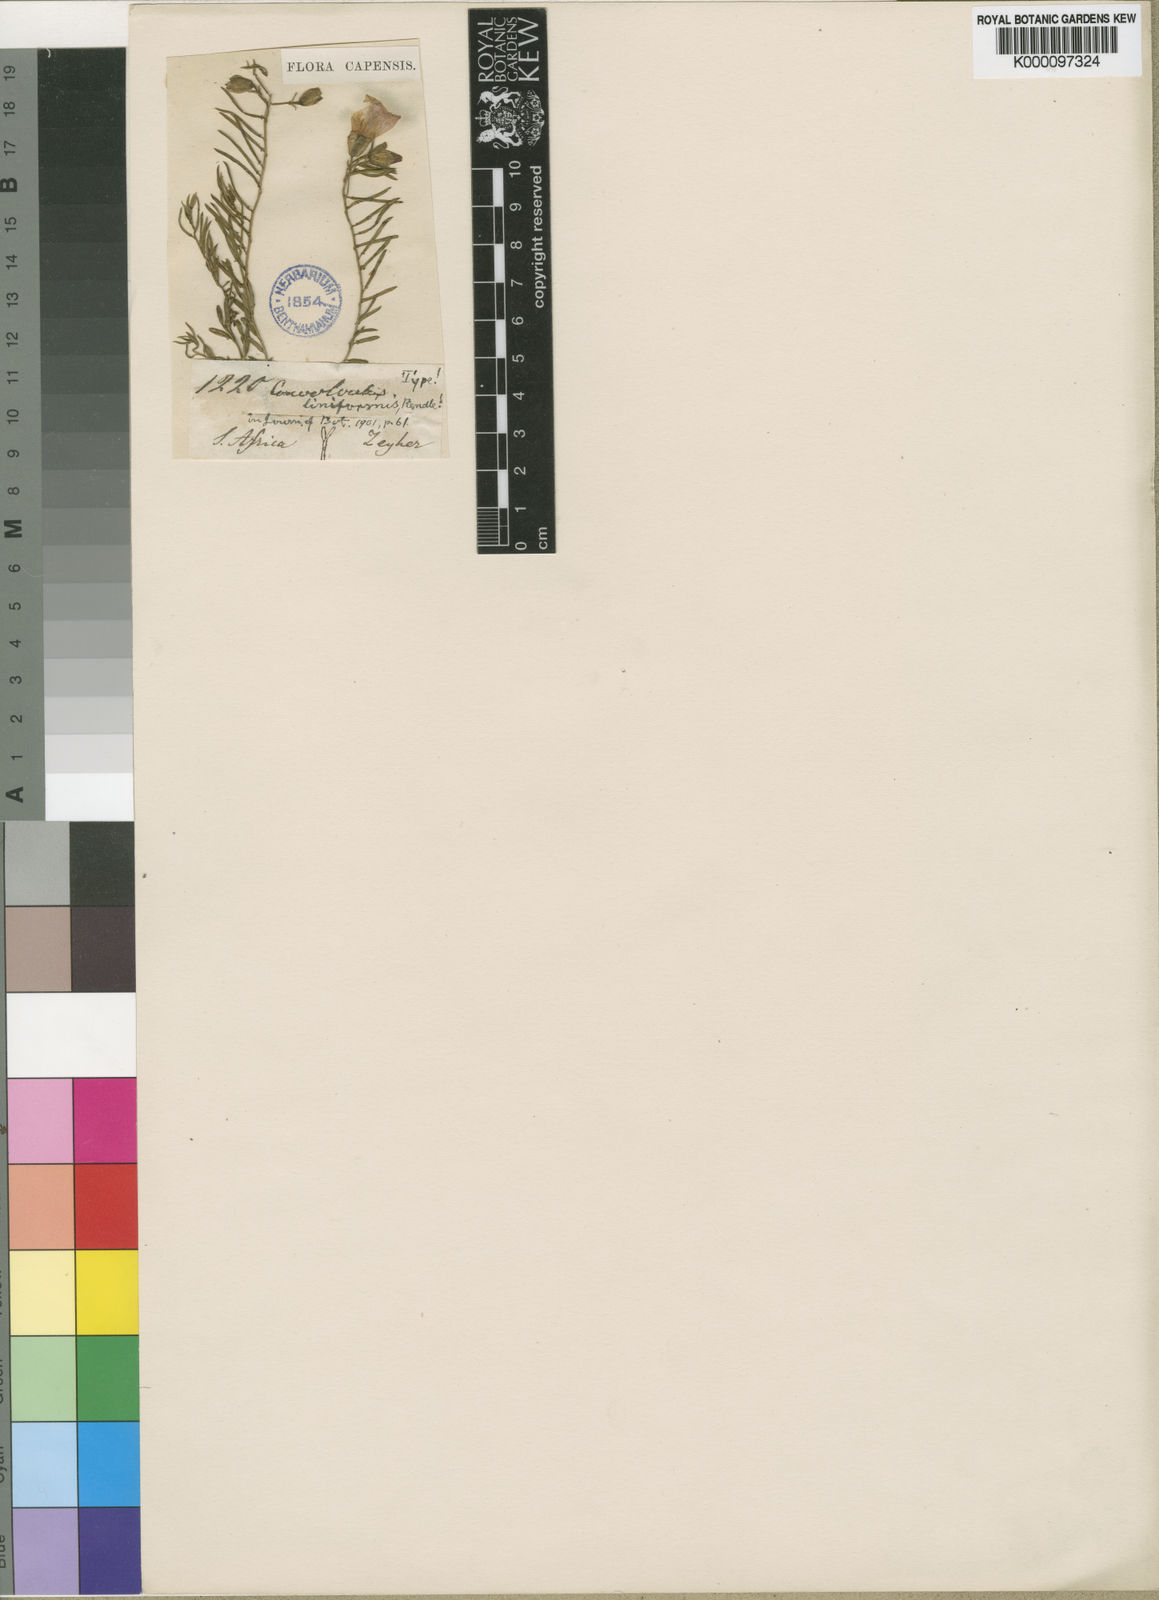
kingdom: Plantae
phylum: Tracheophyta
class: Magnoliopsida
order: Solanales
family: Convolvulaceae
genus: Convolvulus
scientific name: Convolvulus dregeanus
